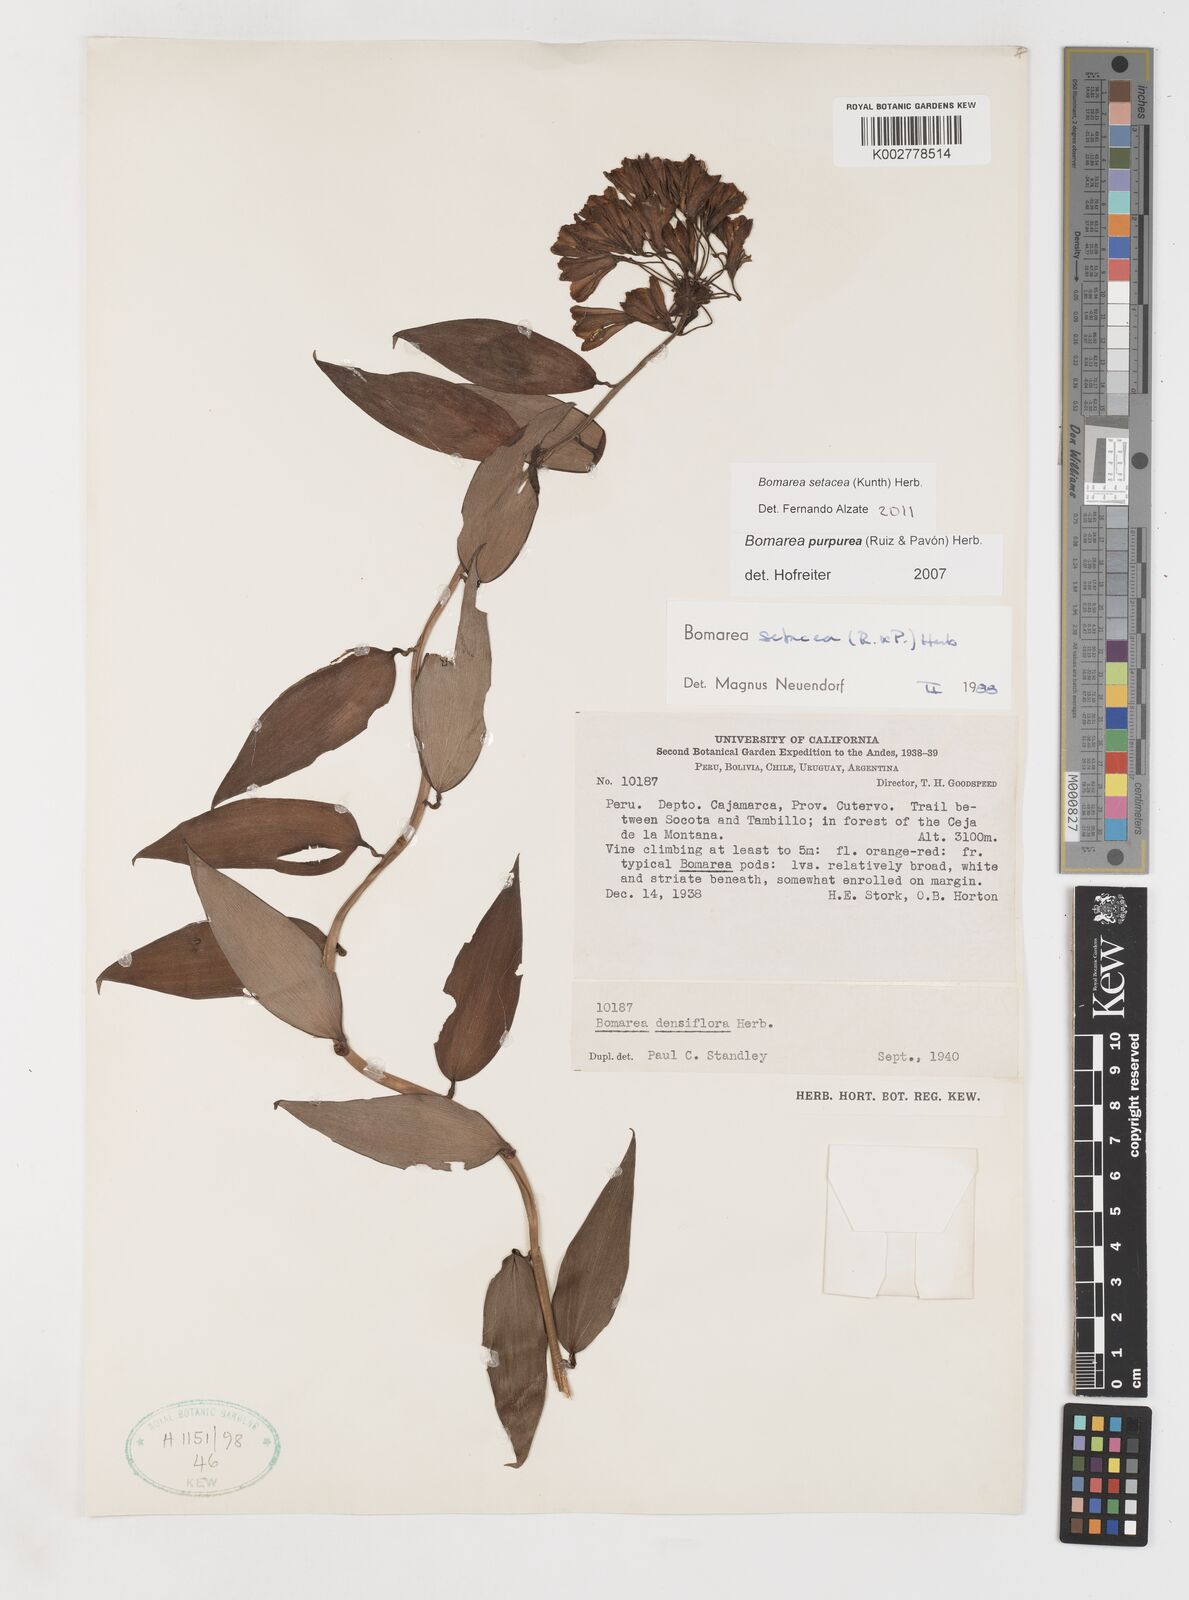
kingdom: Plantae
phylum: Tracheophyta
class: Liliopsida
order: Liliales
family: Alstroemeriaceae
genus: Bomarea
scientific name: Bomarea setacea
